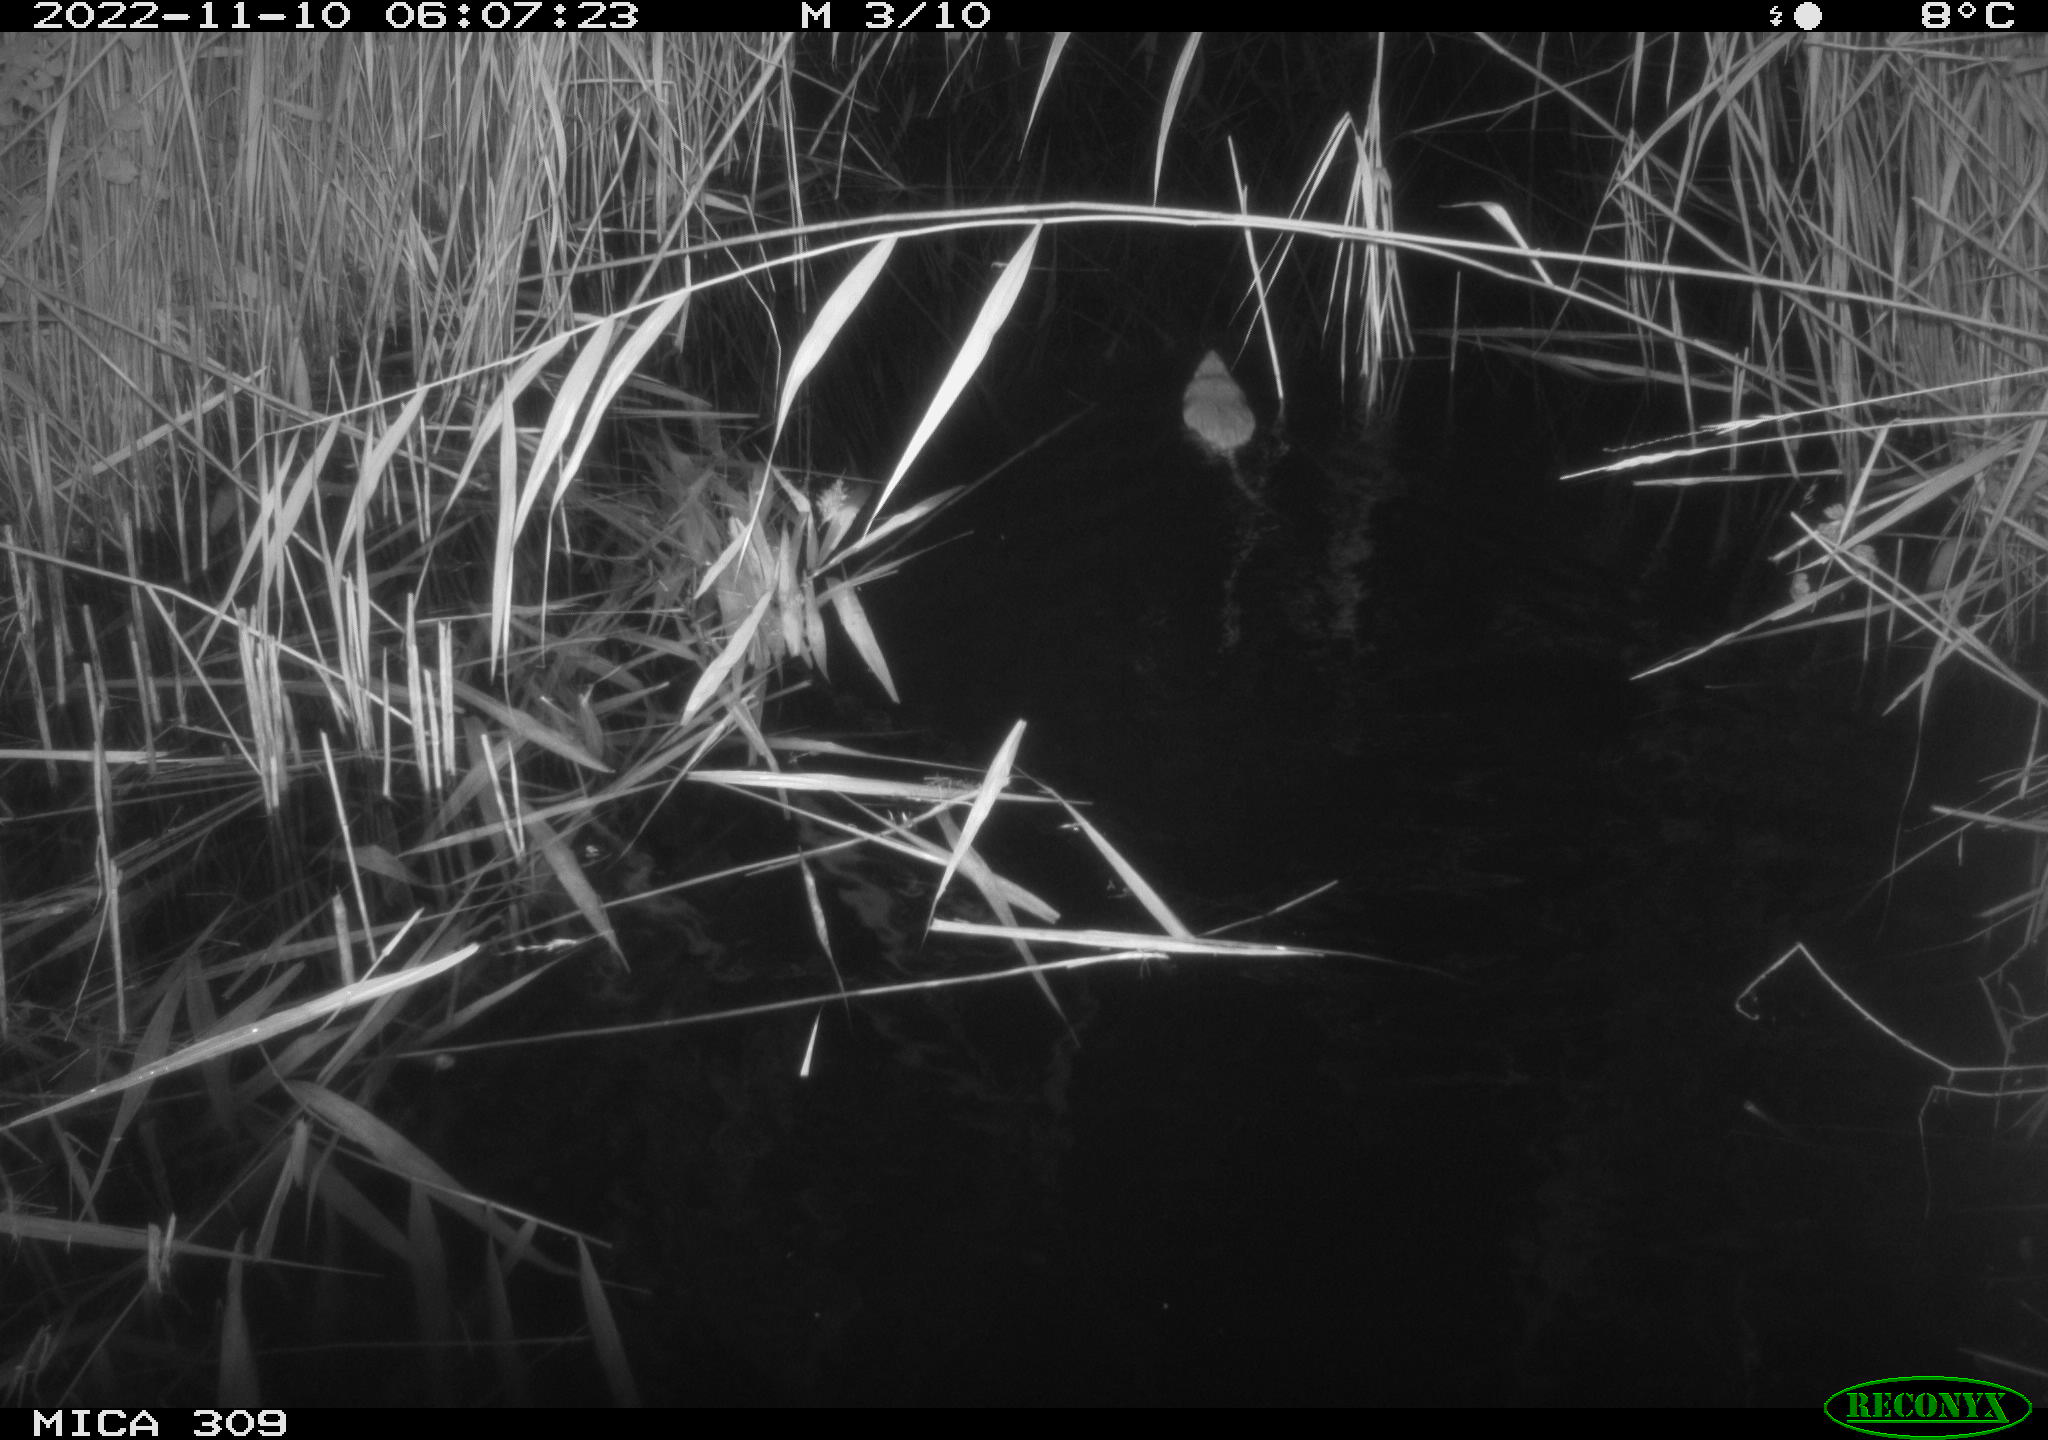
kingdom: Animalia
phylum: Chordata
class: Mammalia
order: Rodentia
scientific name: Rodentia
